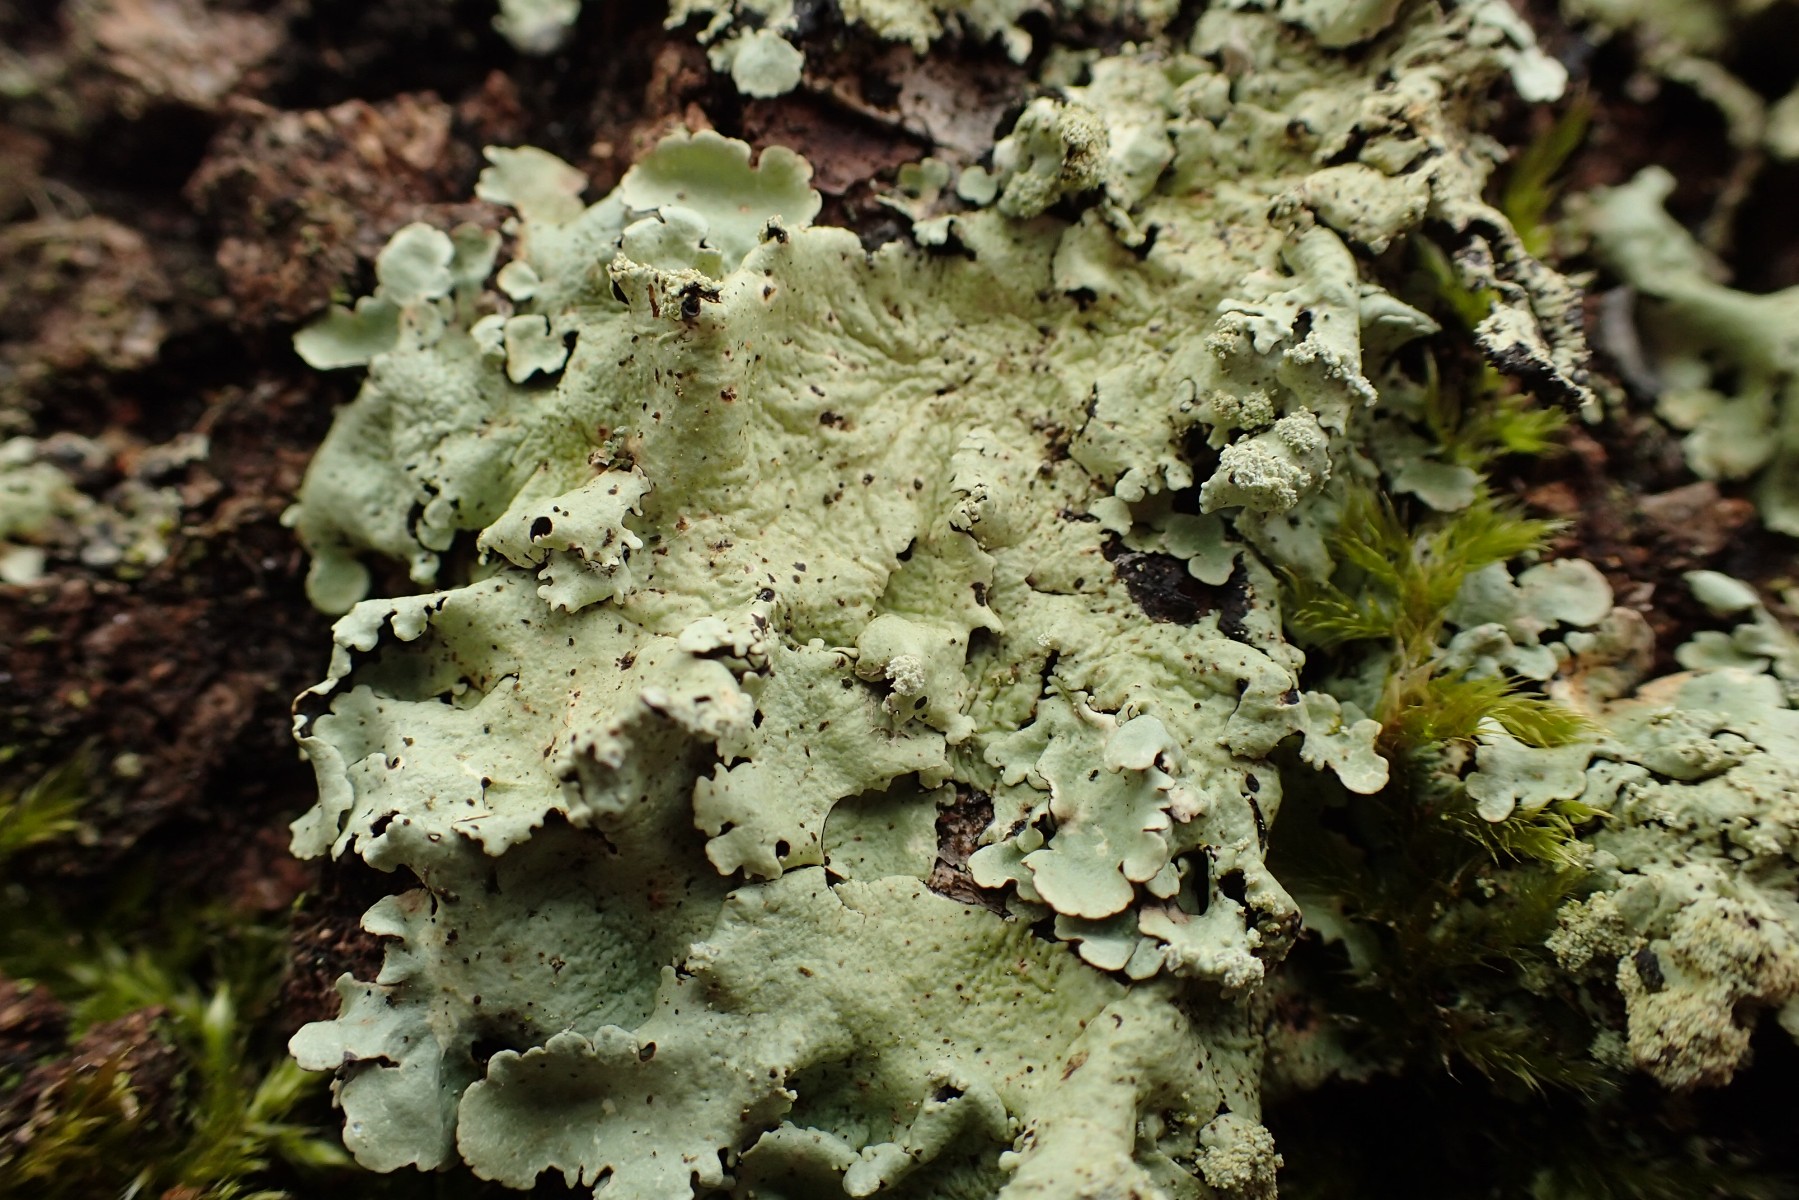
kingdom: Fungi
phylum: Ascomycota
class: Lecanoromycetes
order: Lecanorales
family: Parmeliaceae
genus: Flavoparmelia
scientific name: Flavoparmelia caperata
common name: gulgrøn skållav
